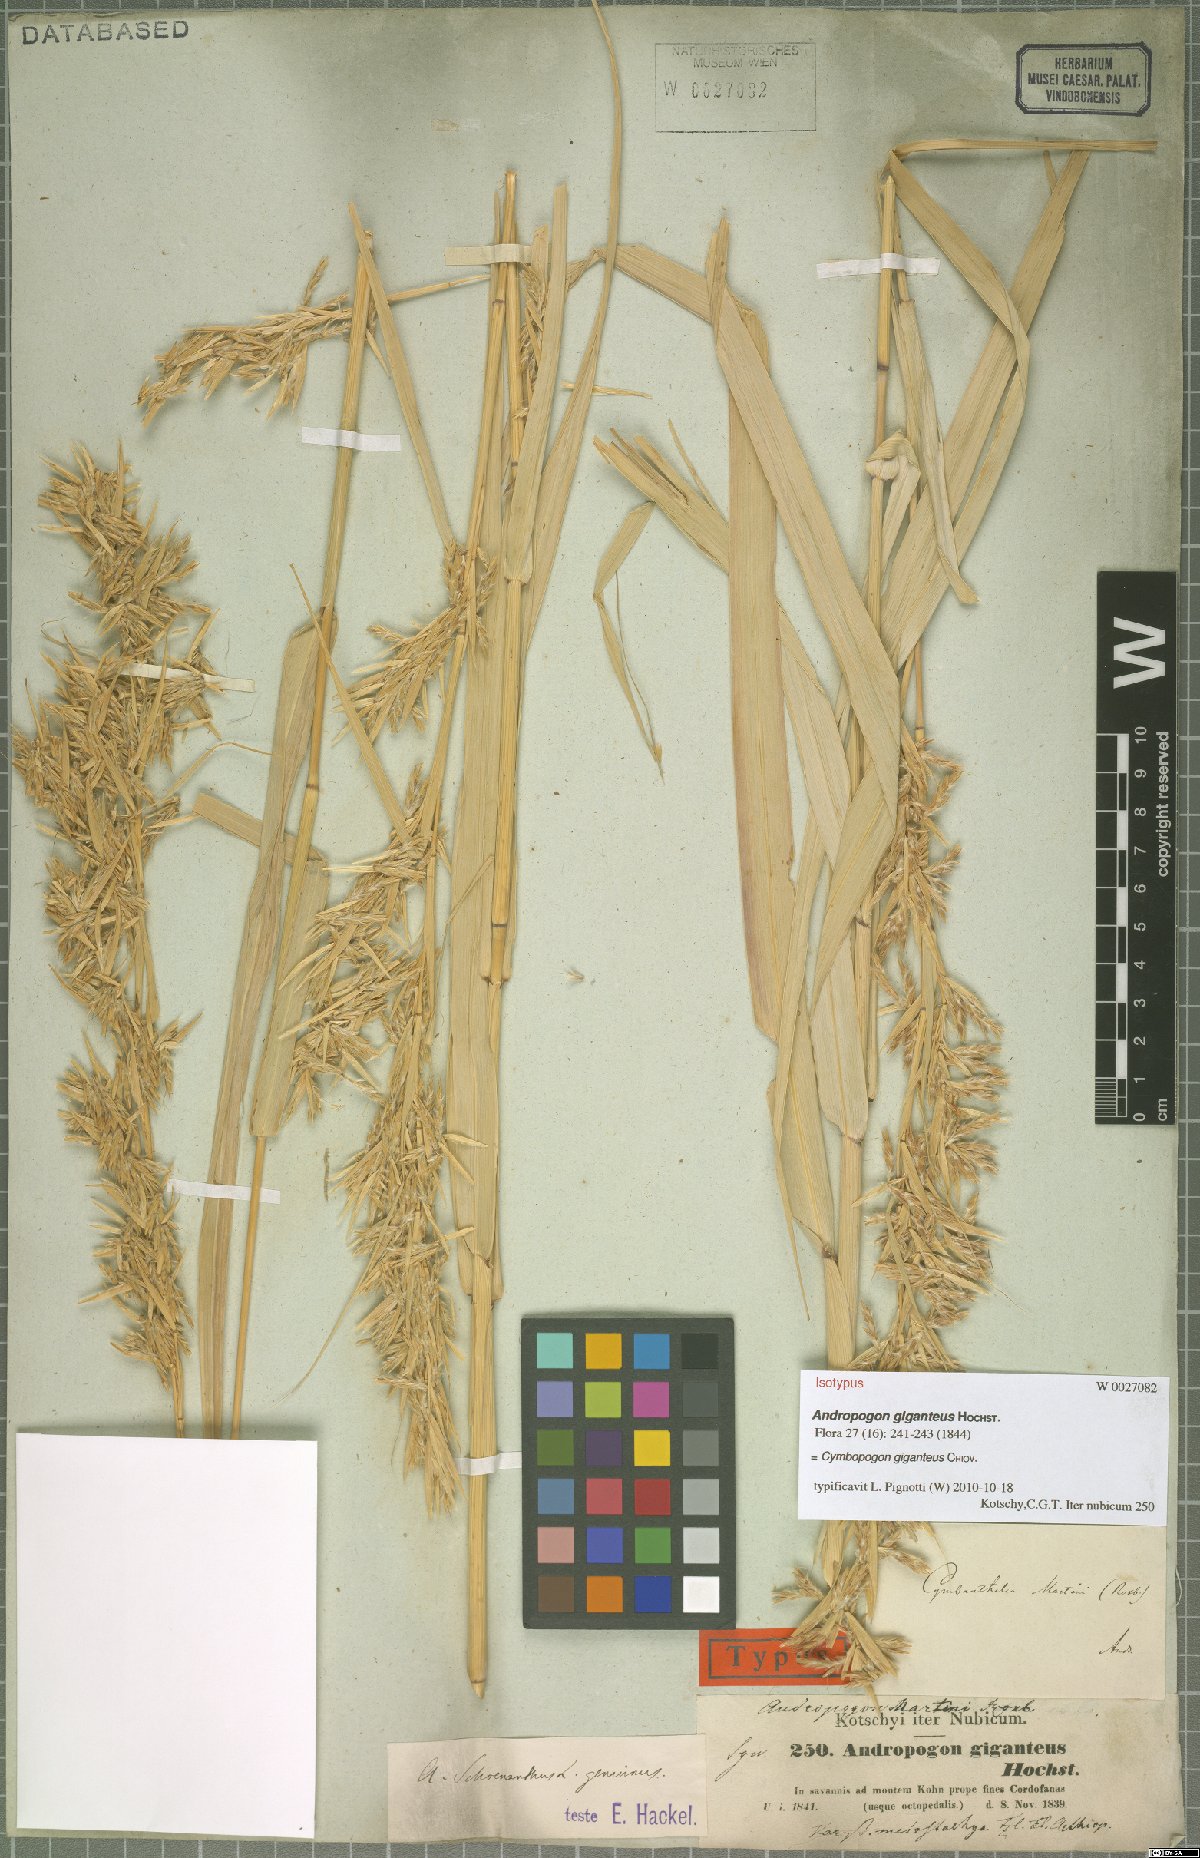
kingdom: Plantae
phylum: Tracheophyta
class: Liliopsida
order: Poales
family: Poaceae
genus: Cymbopogon
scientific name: Cymbopogon giganteus
